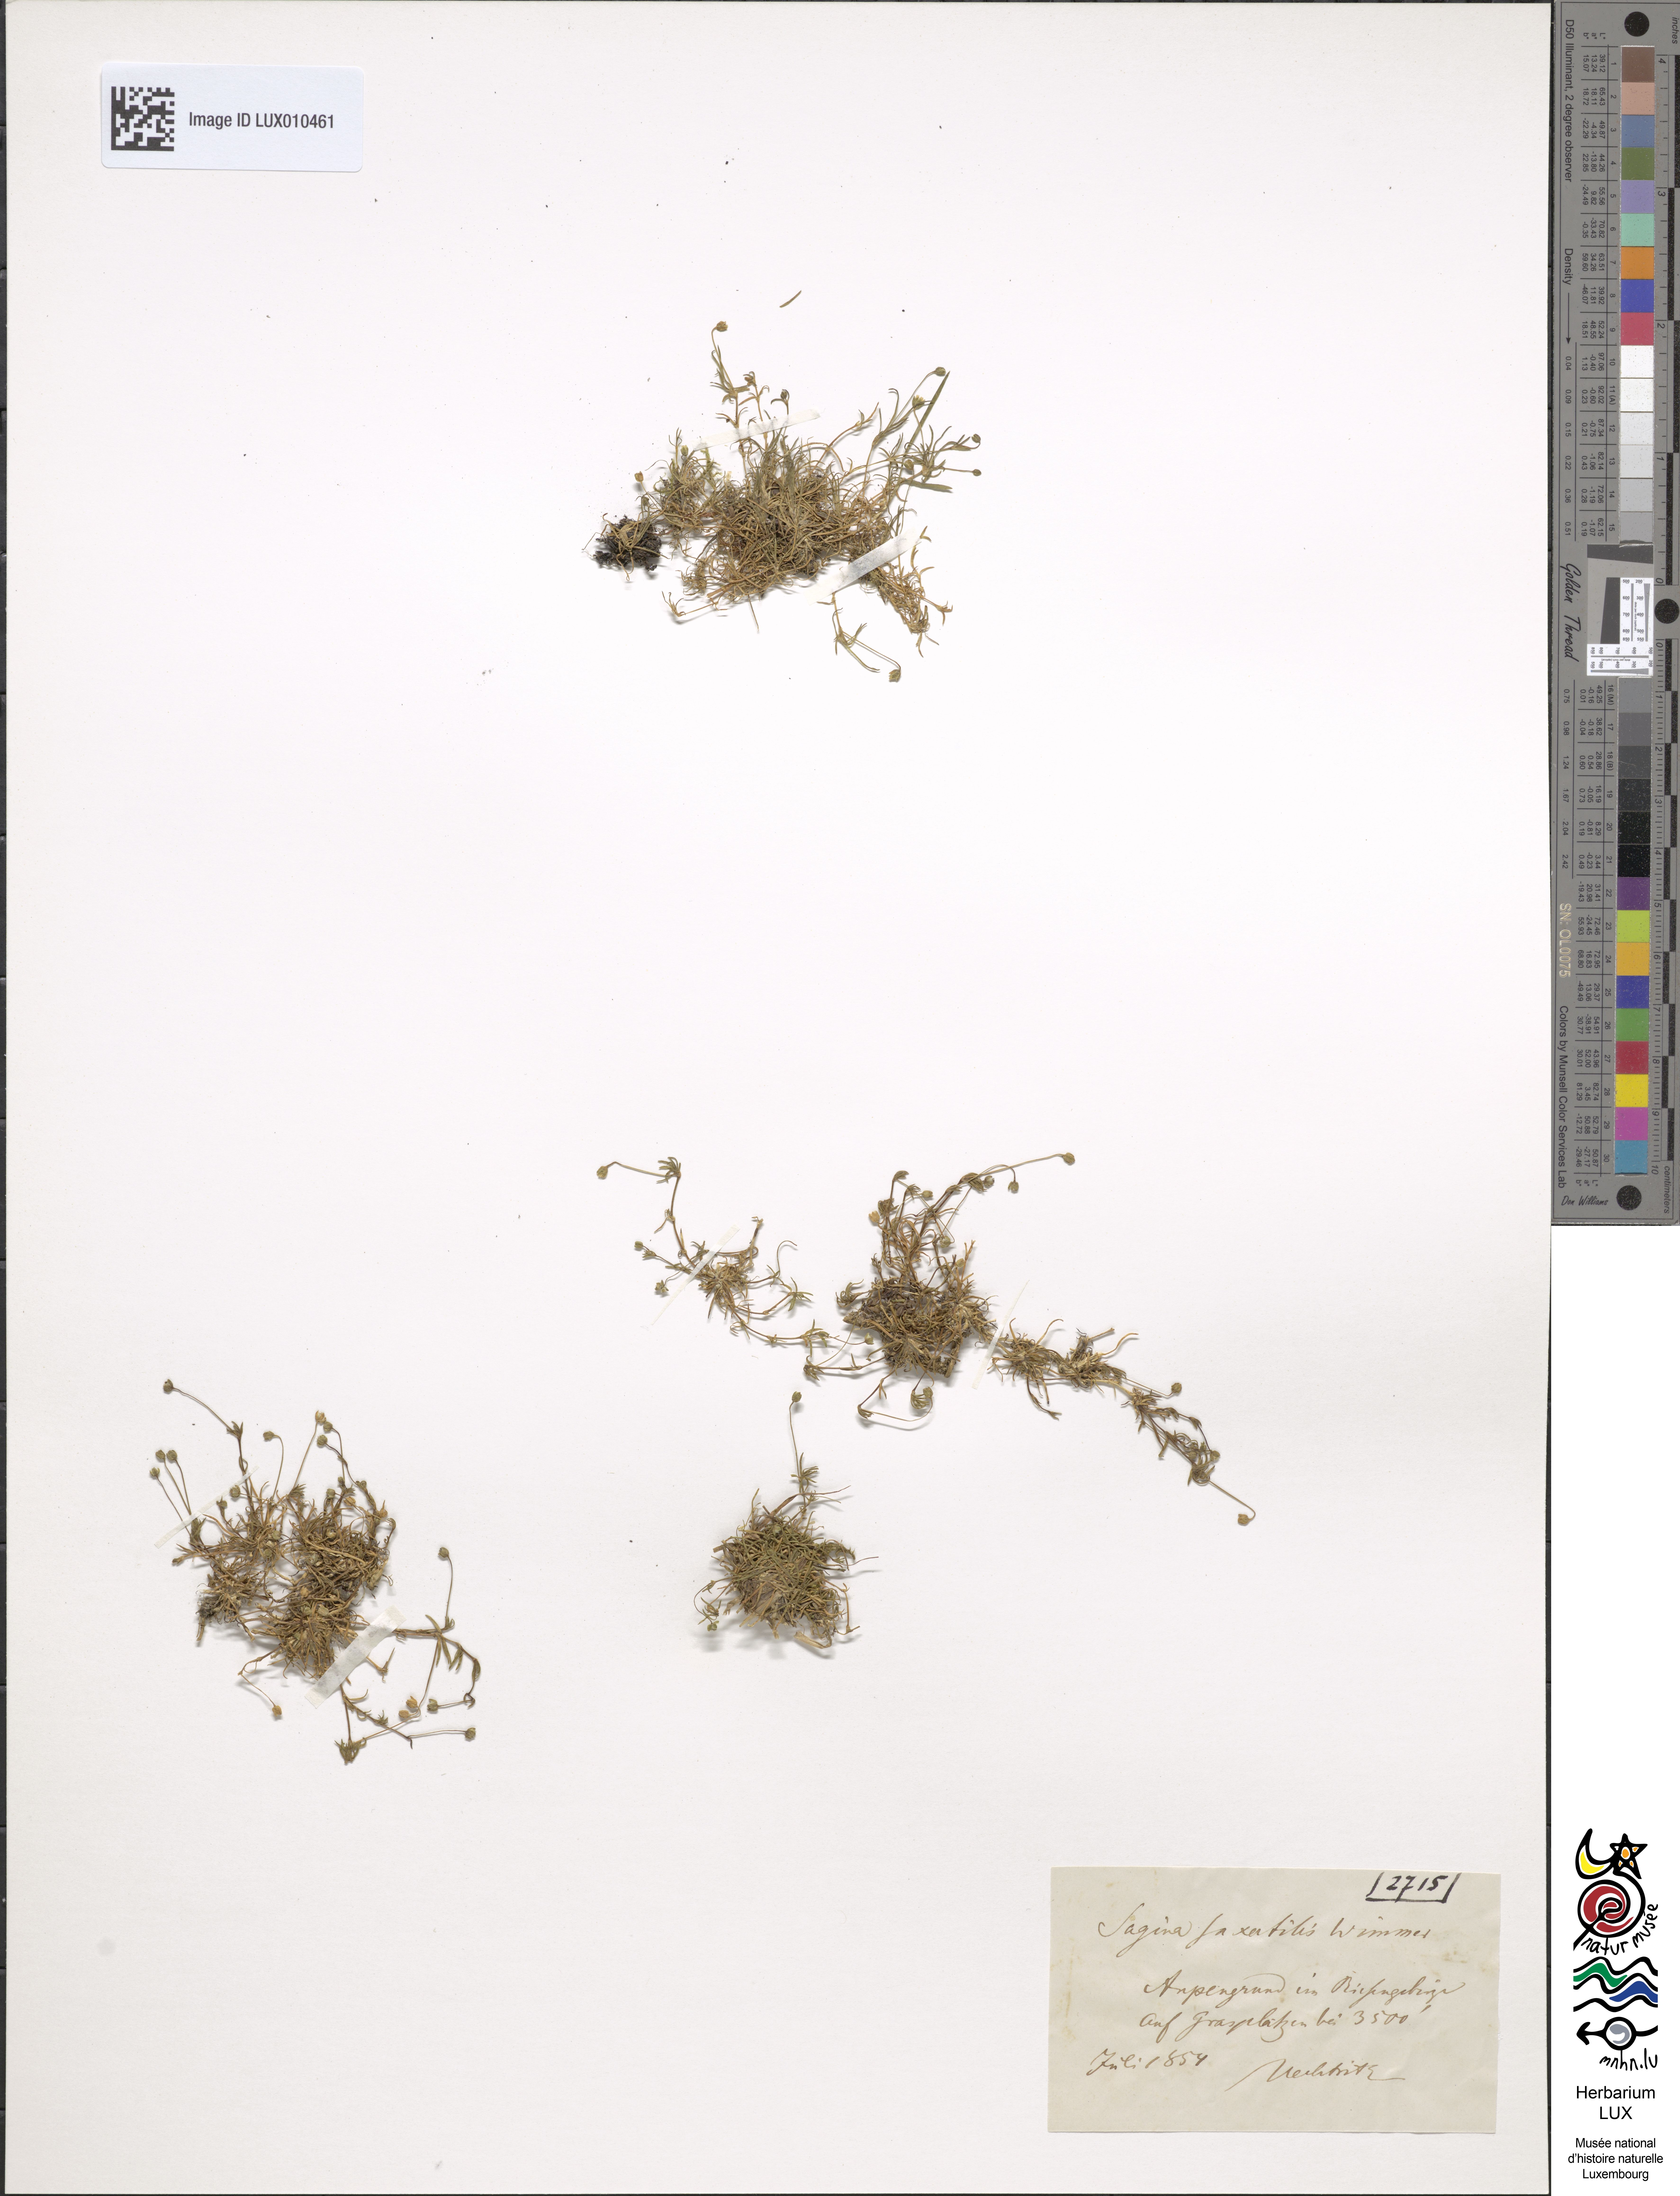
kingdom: Plantae
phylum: Tracheophyta
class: Magnoliopsida
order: Caryophyllales
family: Caryophyllaceae
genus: Sagina
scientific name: Sagina saginoides
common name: Alpine pearlwort
